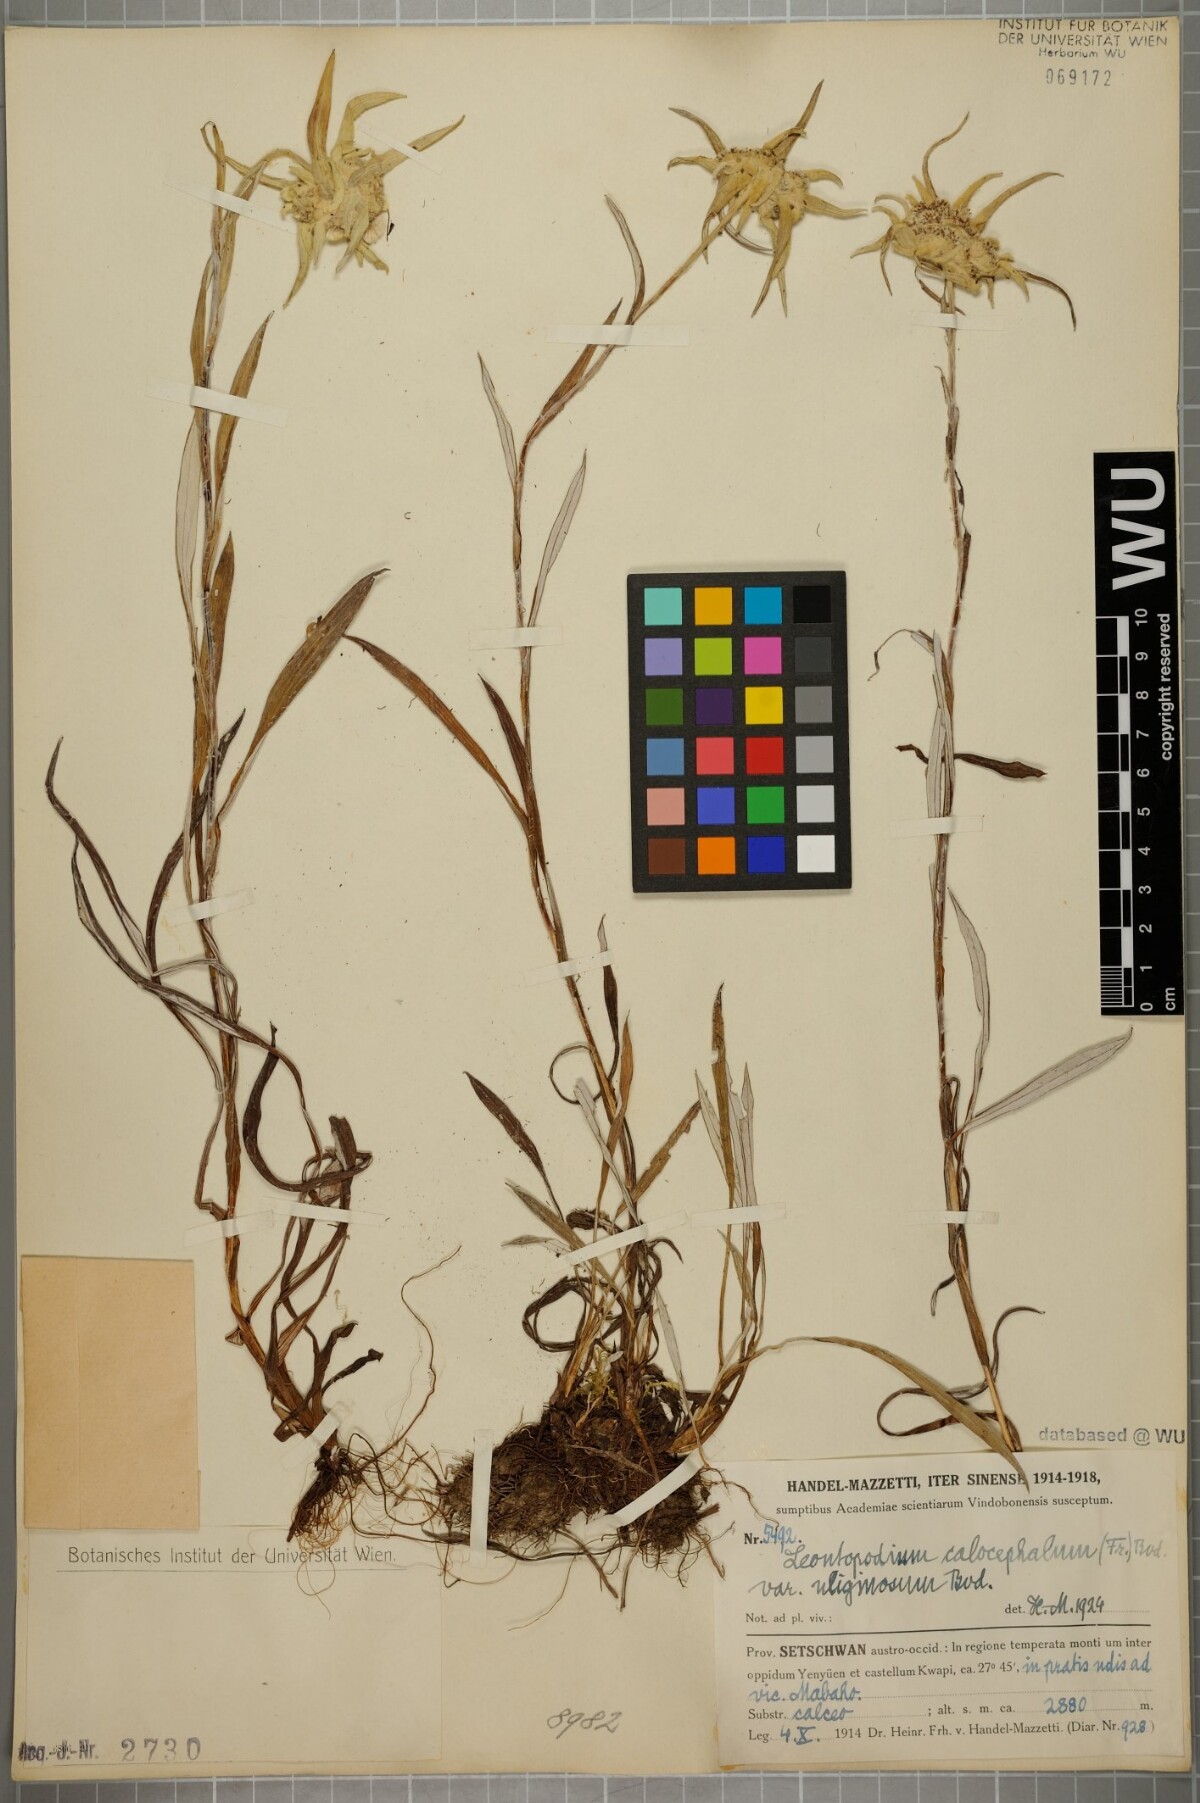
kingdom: Plantae
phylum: Tracheophyta
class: Magnoliopsida
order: Asterales
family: Asteraceae
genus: Leontopodium
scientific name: Leontopodium calocephalum
